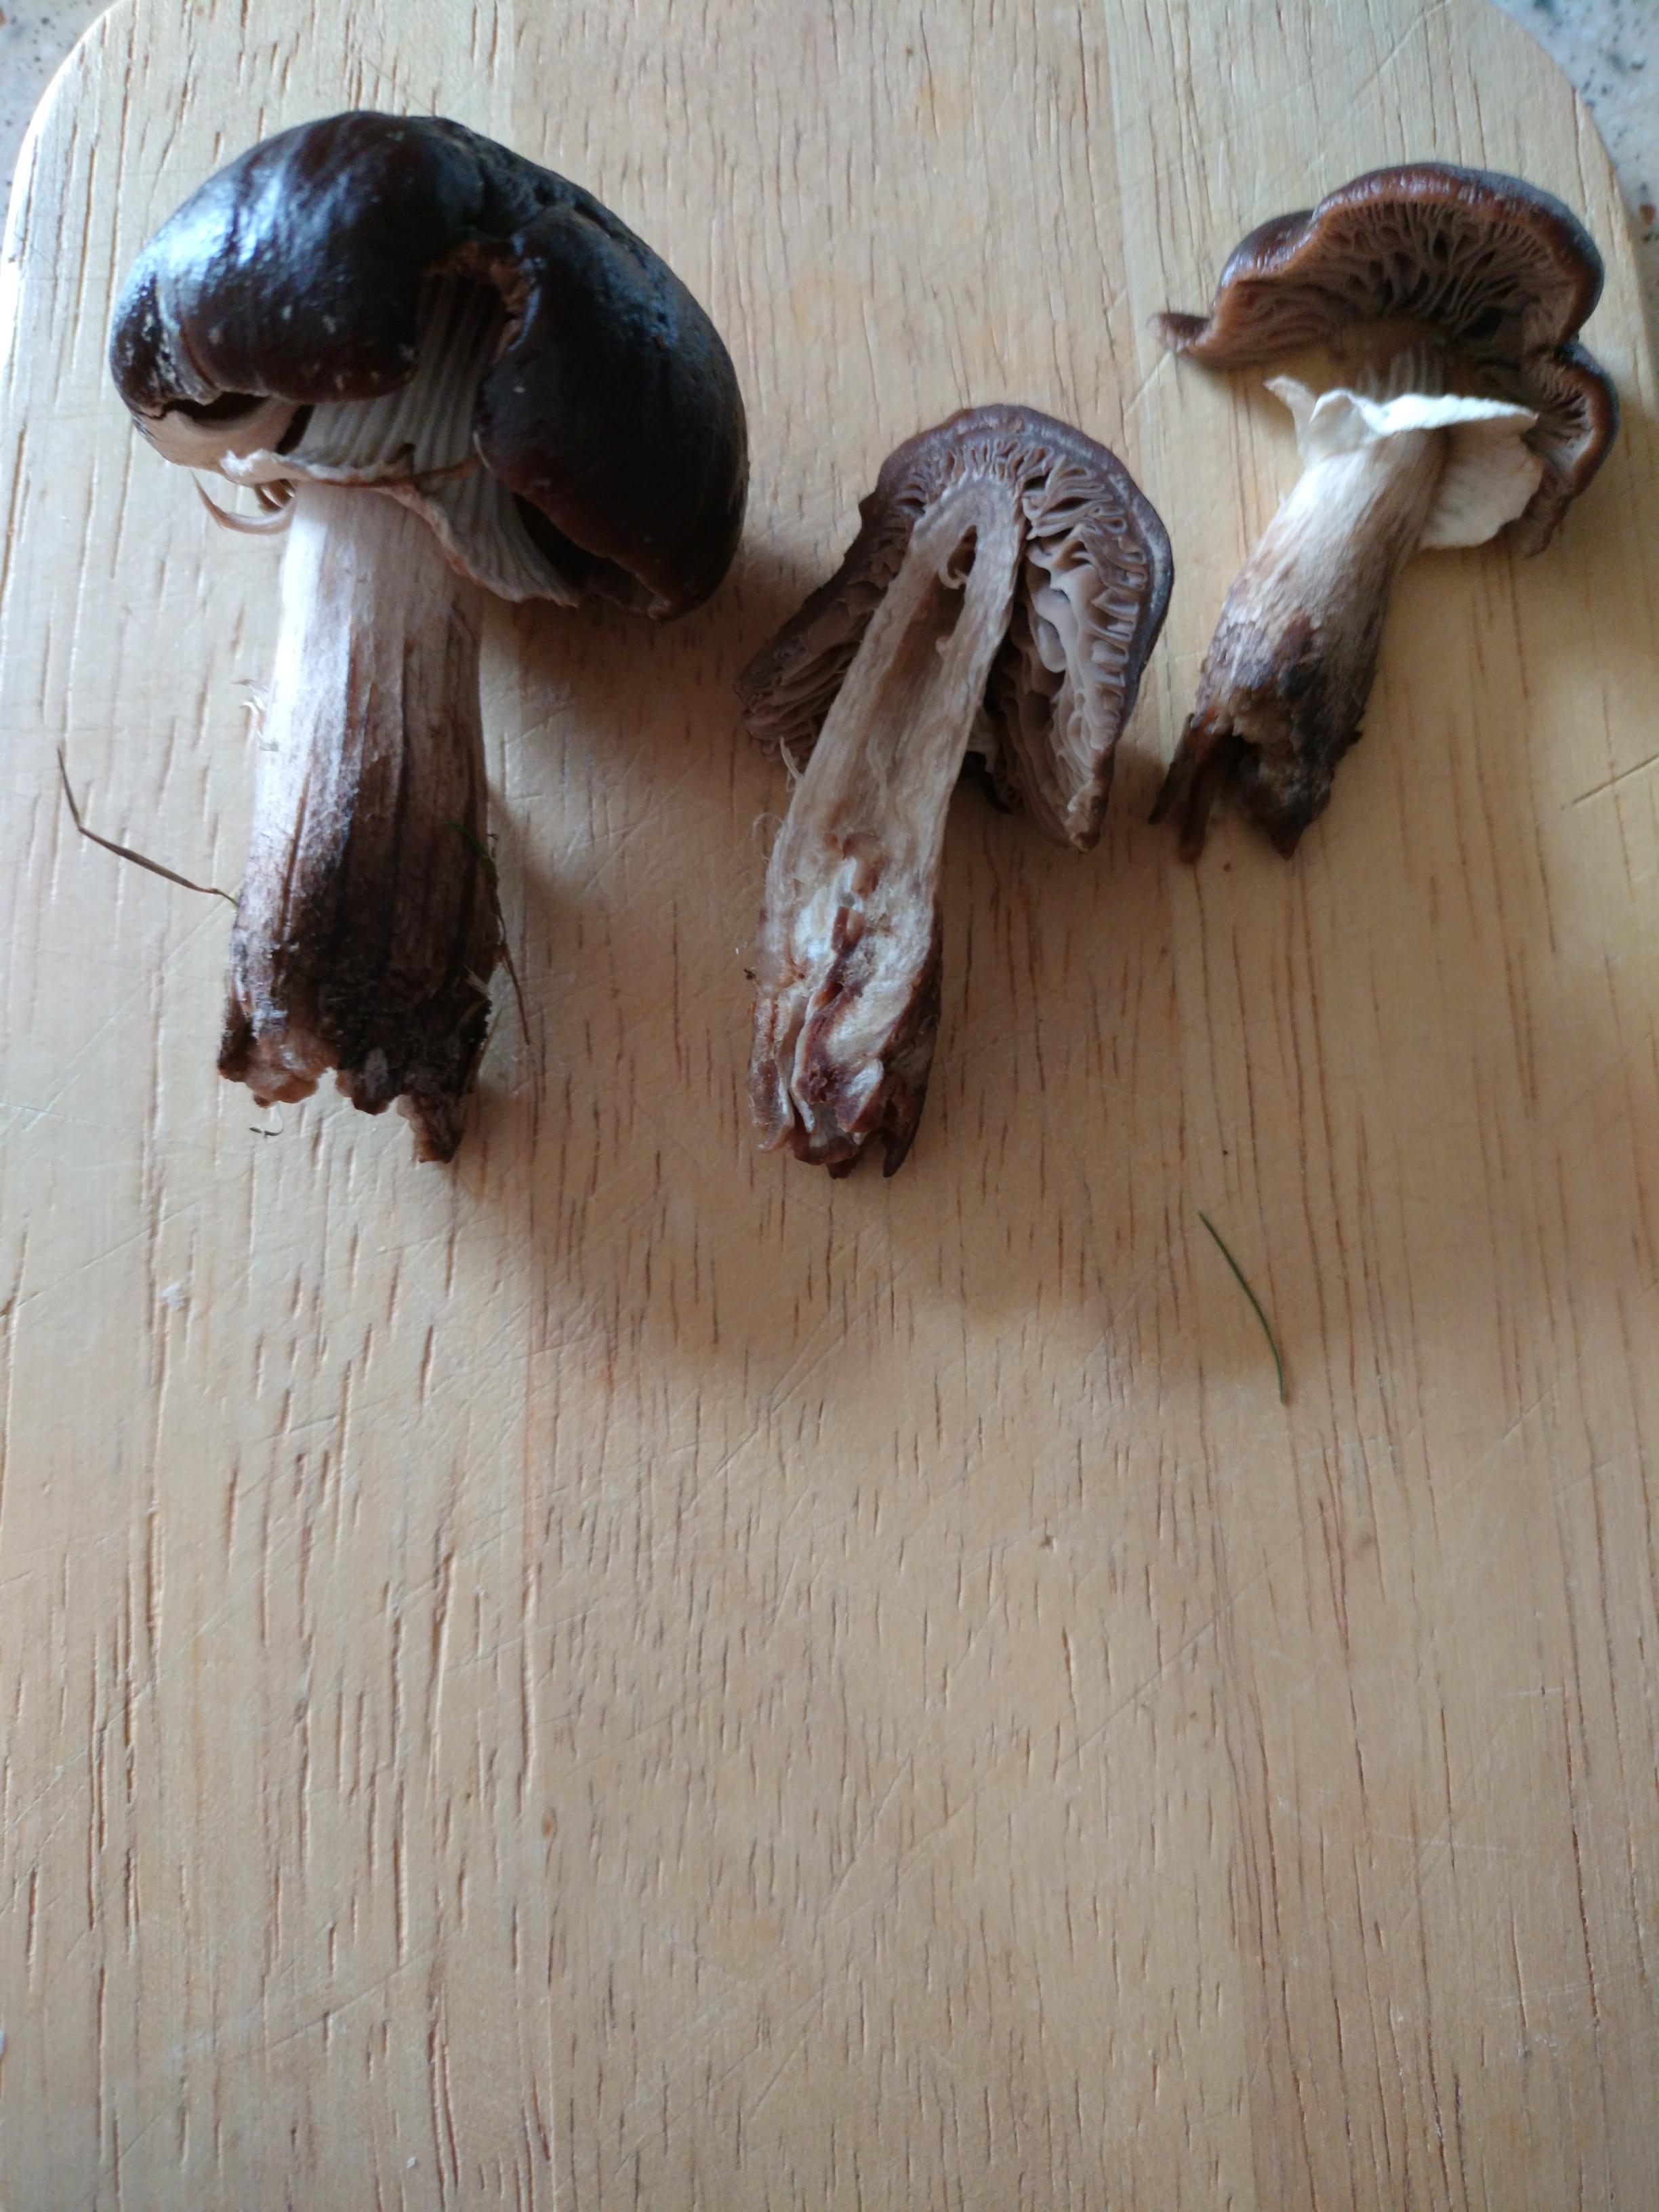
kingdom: Fungi
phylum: Basidiomycota
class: Agaricomycetes
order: Agaricales
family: Tubariaceae
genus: Cyclocybe
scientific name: Cyclocybe erebia
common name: mørk agerhat
